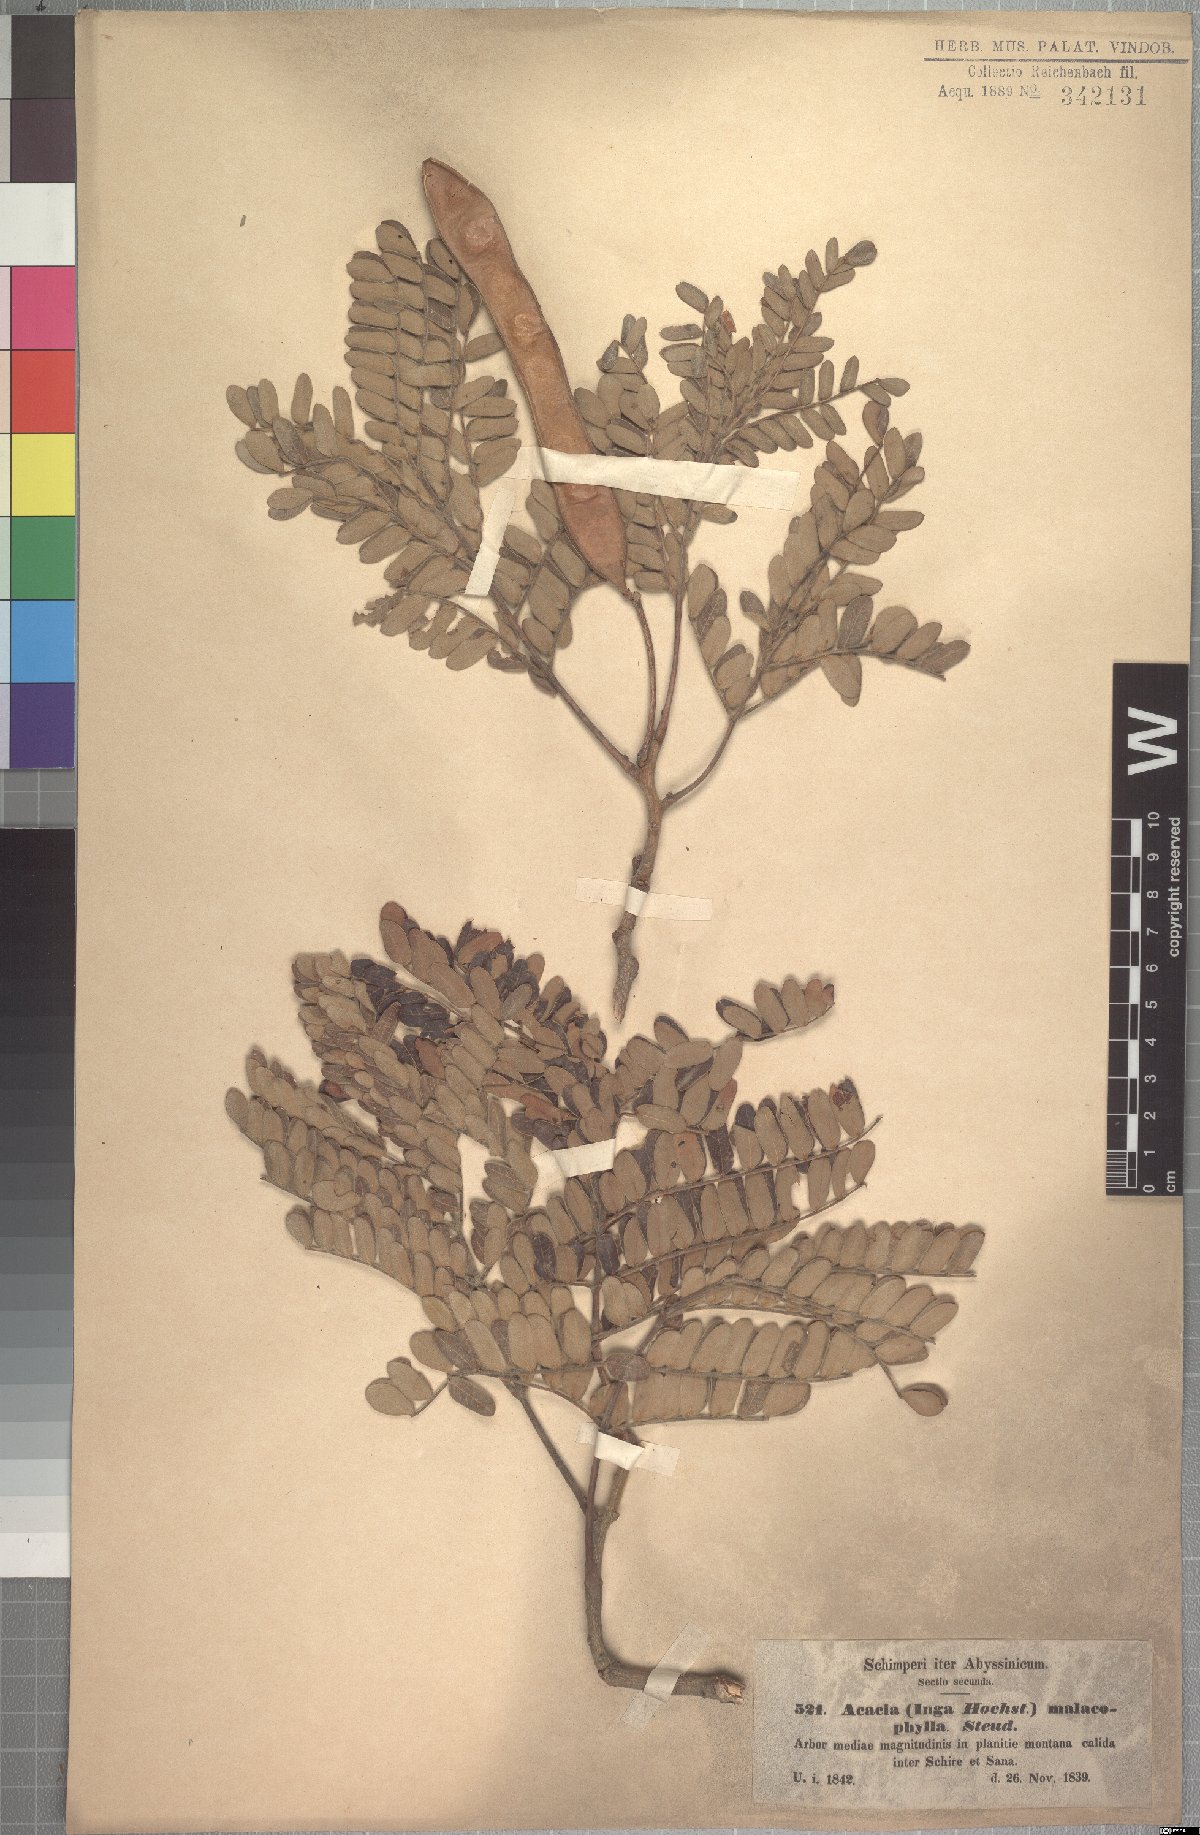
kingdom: Plantae
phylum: Tracheophyta
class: Magnoliopsida
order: Fabales
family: Fabaceae
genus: Albizia
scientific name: Albizia malacophylla
